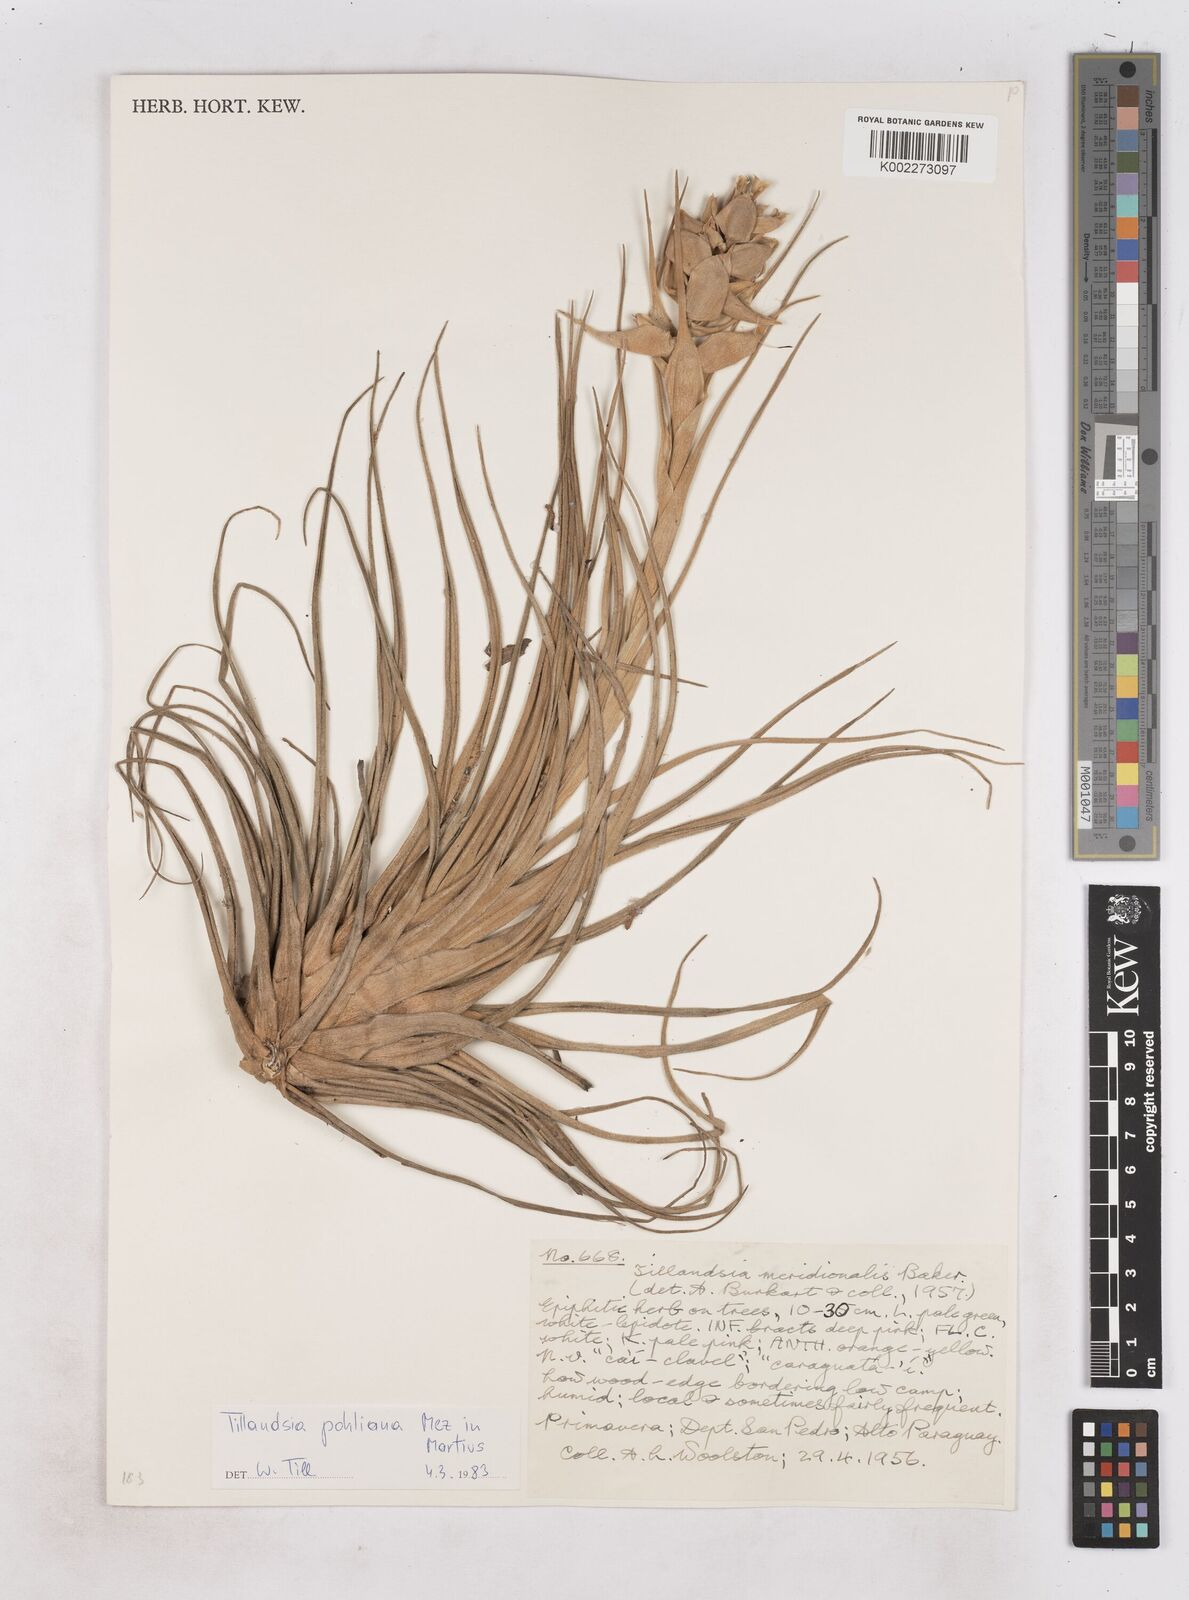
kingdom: Plantae
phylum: Tracheophyta
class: Liliopsida
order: Poales
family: Bromeliaceae
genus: Tillandsia
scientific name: Tillandsia pohliana
